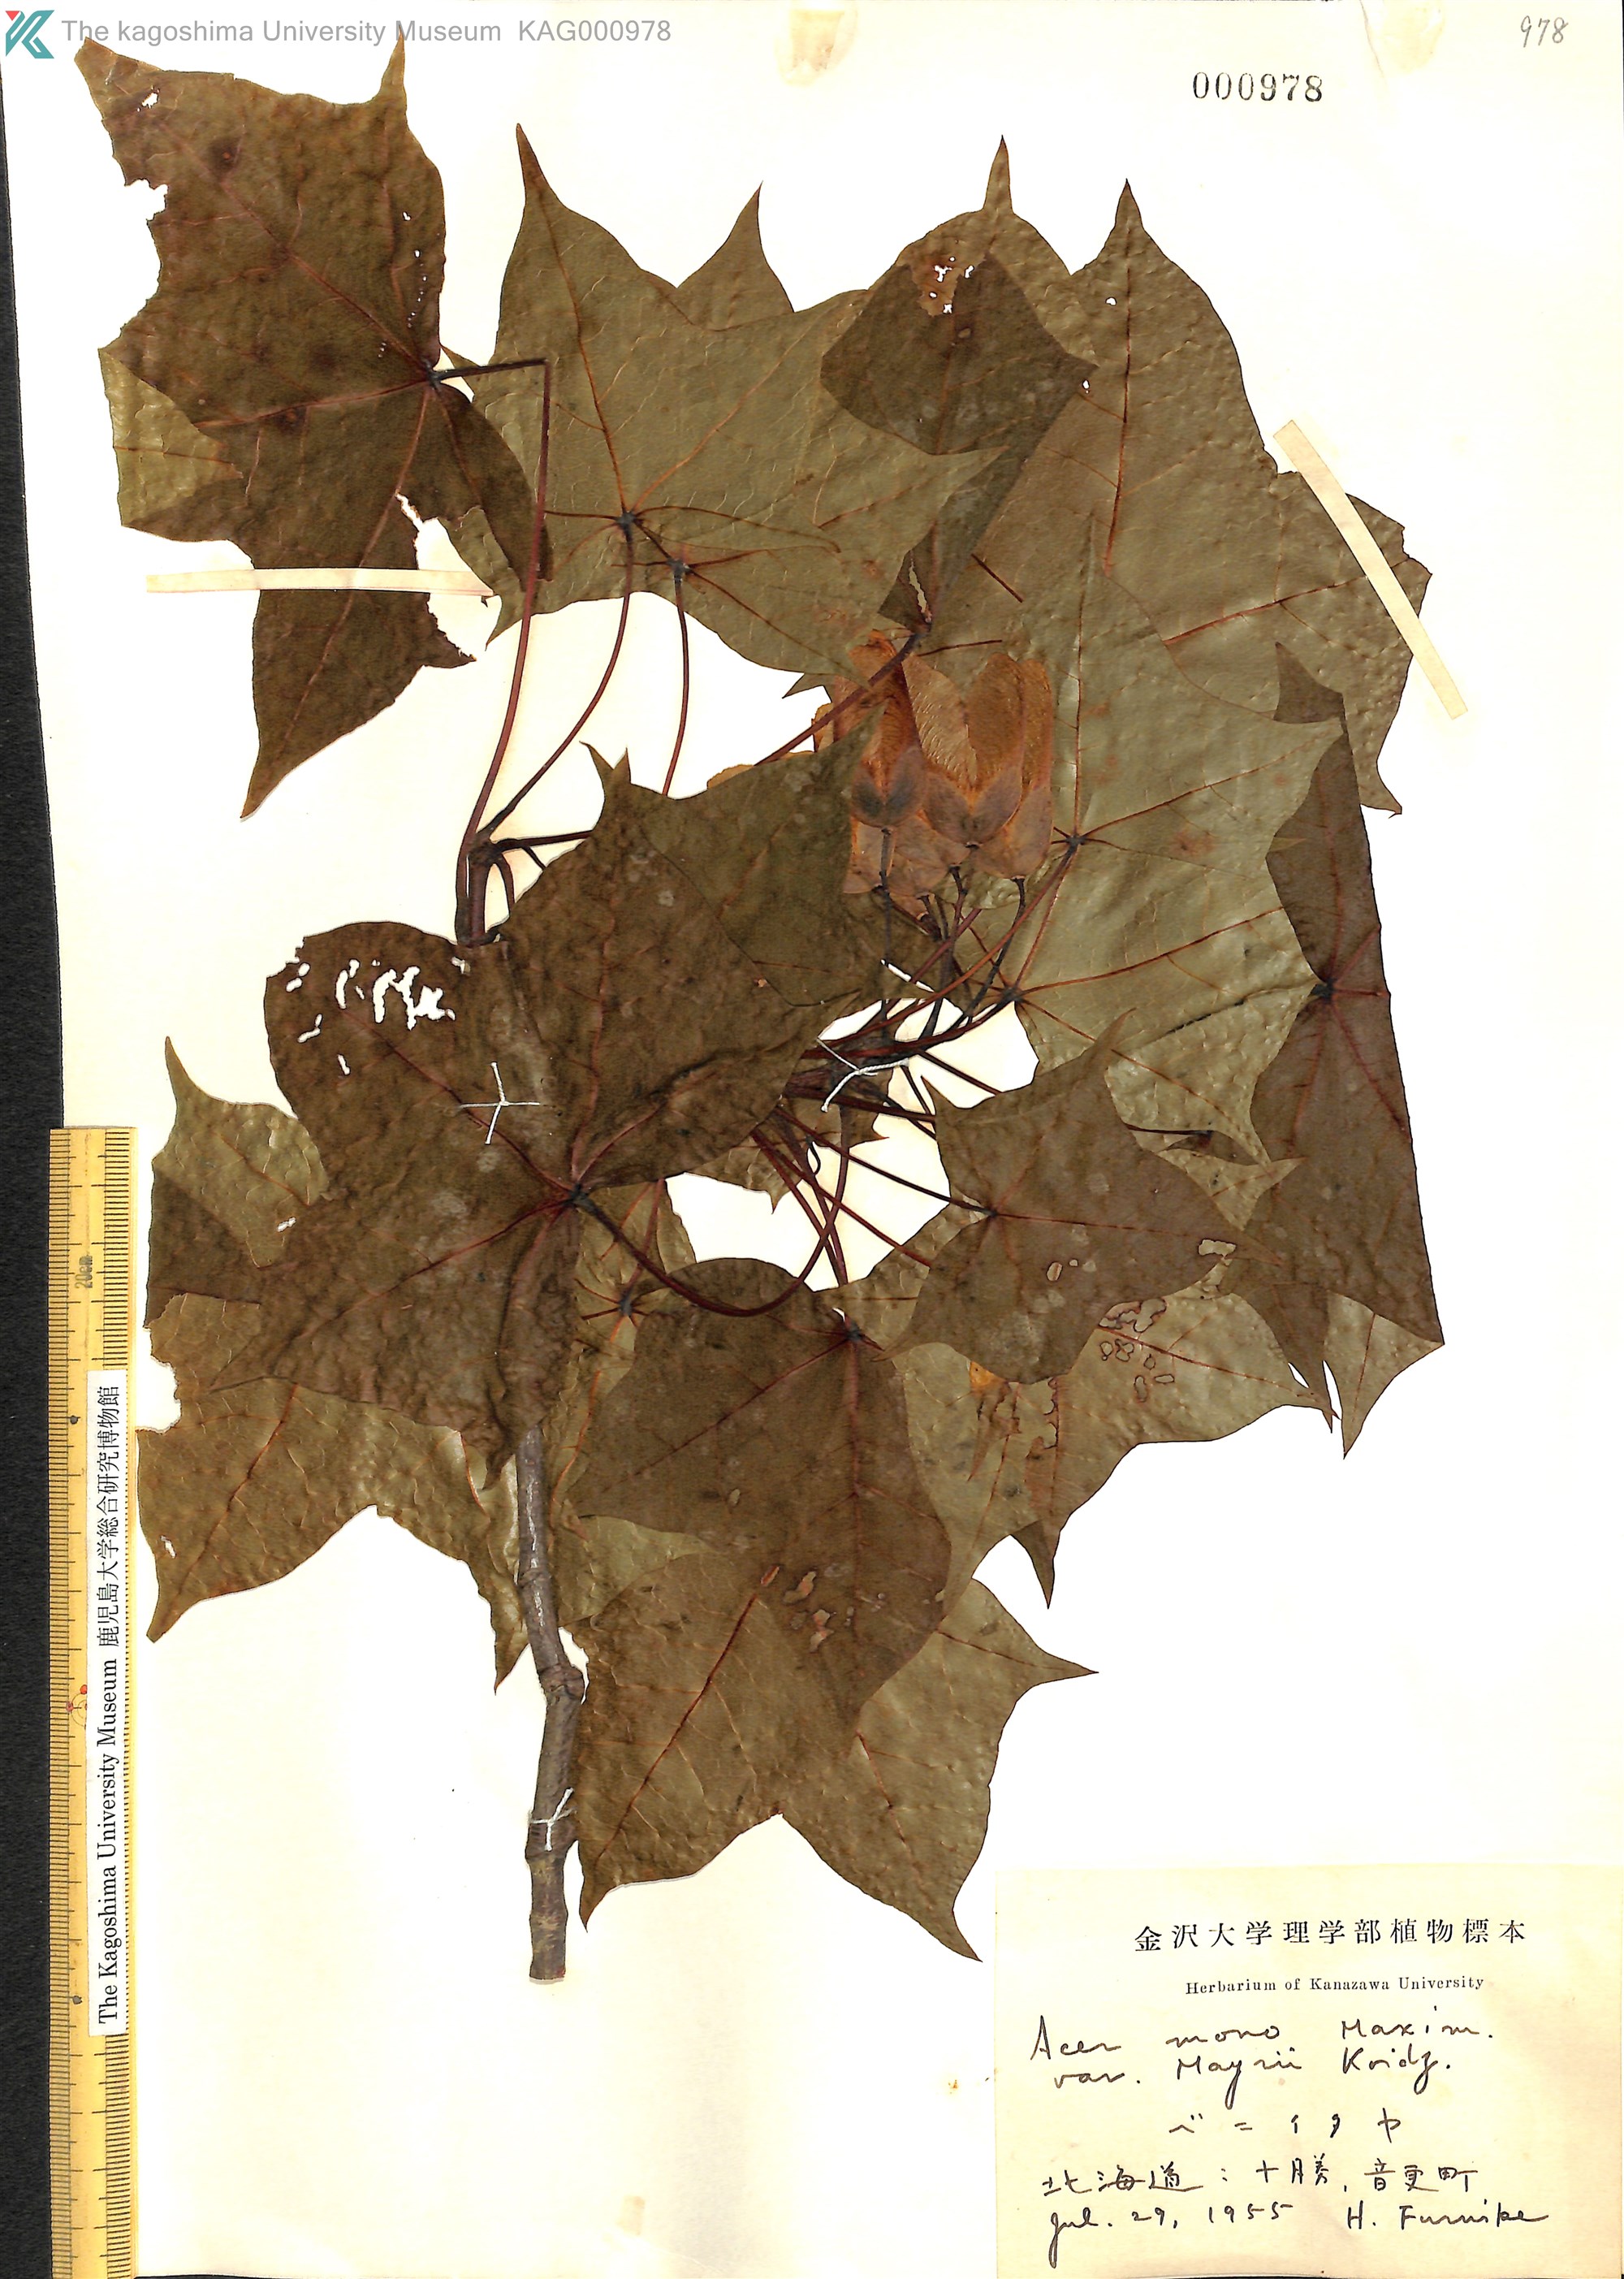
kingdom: Plantae
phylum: Tracheophyta
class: Magnoliopsida
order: Sapindales
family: Sapindaceae
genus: Acer
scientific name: Acer pictum
